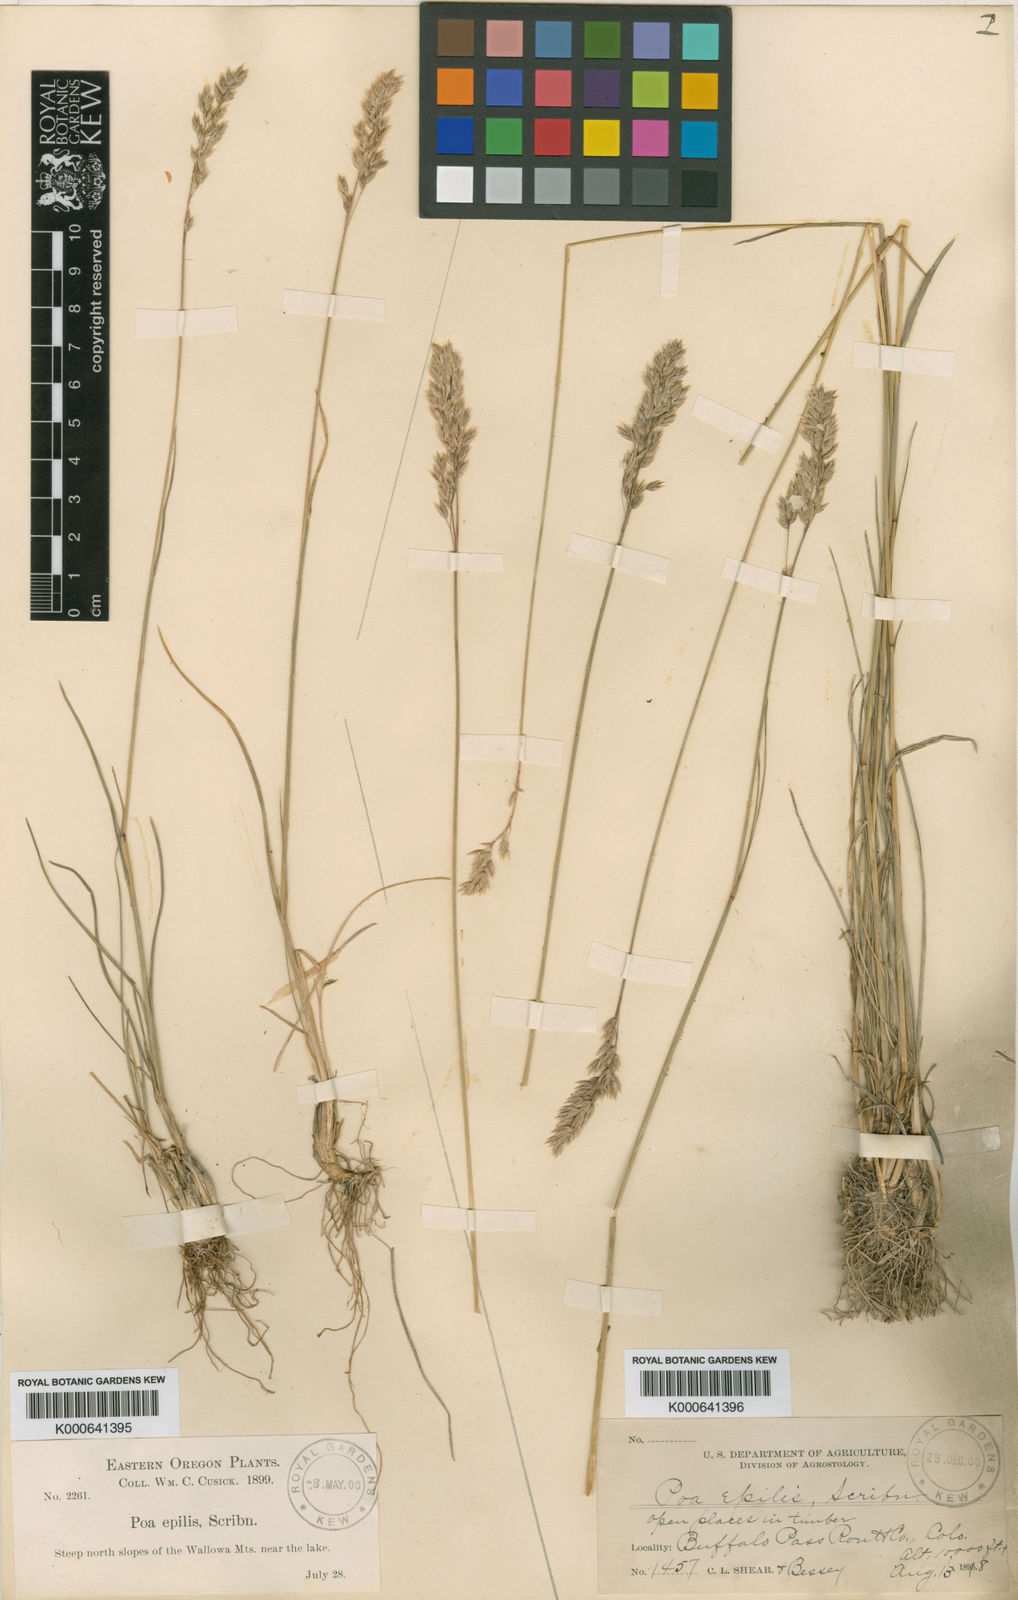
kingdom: Plantae
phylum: Tracheophyta
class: Liliopsida
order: Poales
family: Poaceae
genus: Poa
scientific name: Poa cusickii
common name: Cusick's bluegrass
